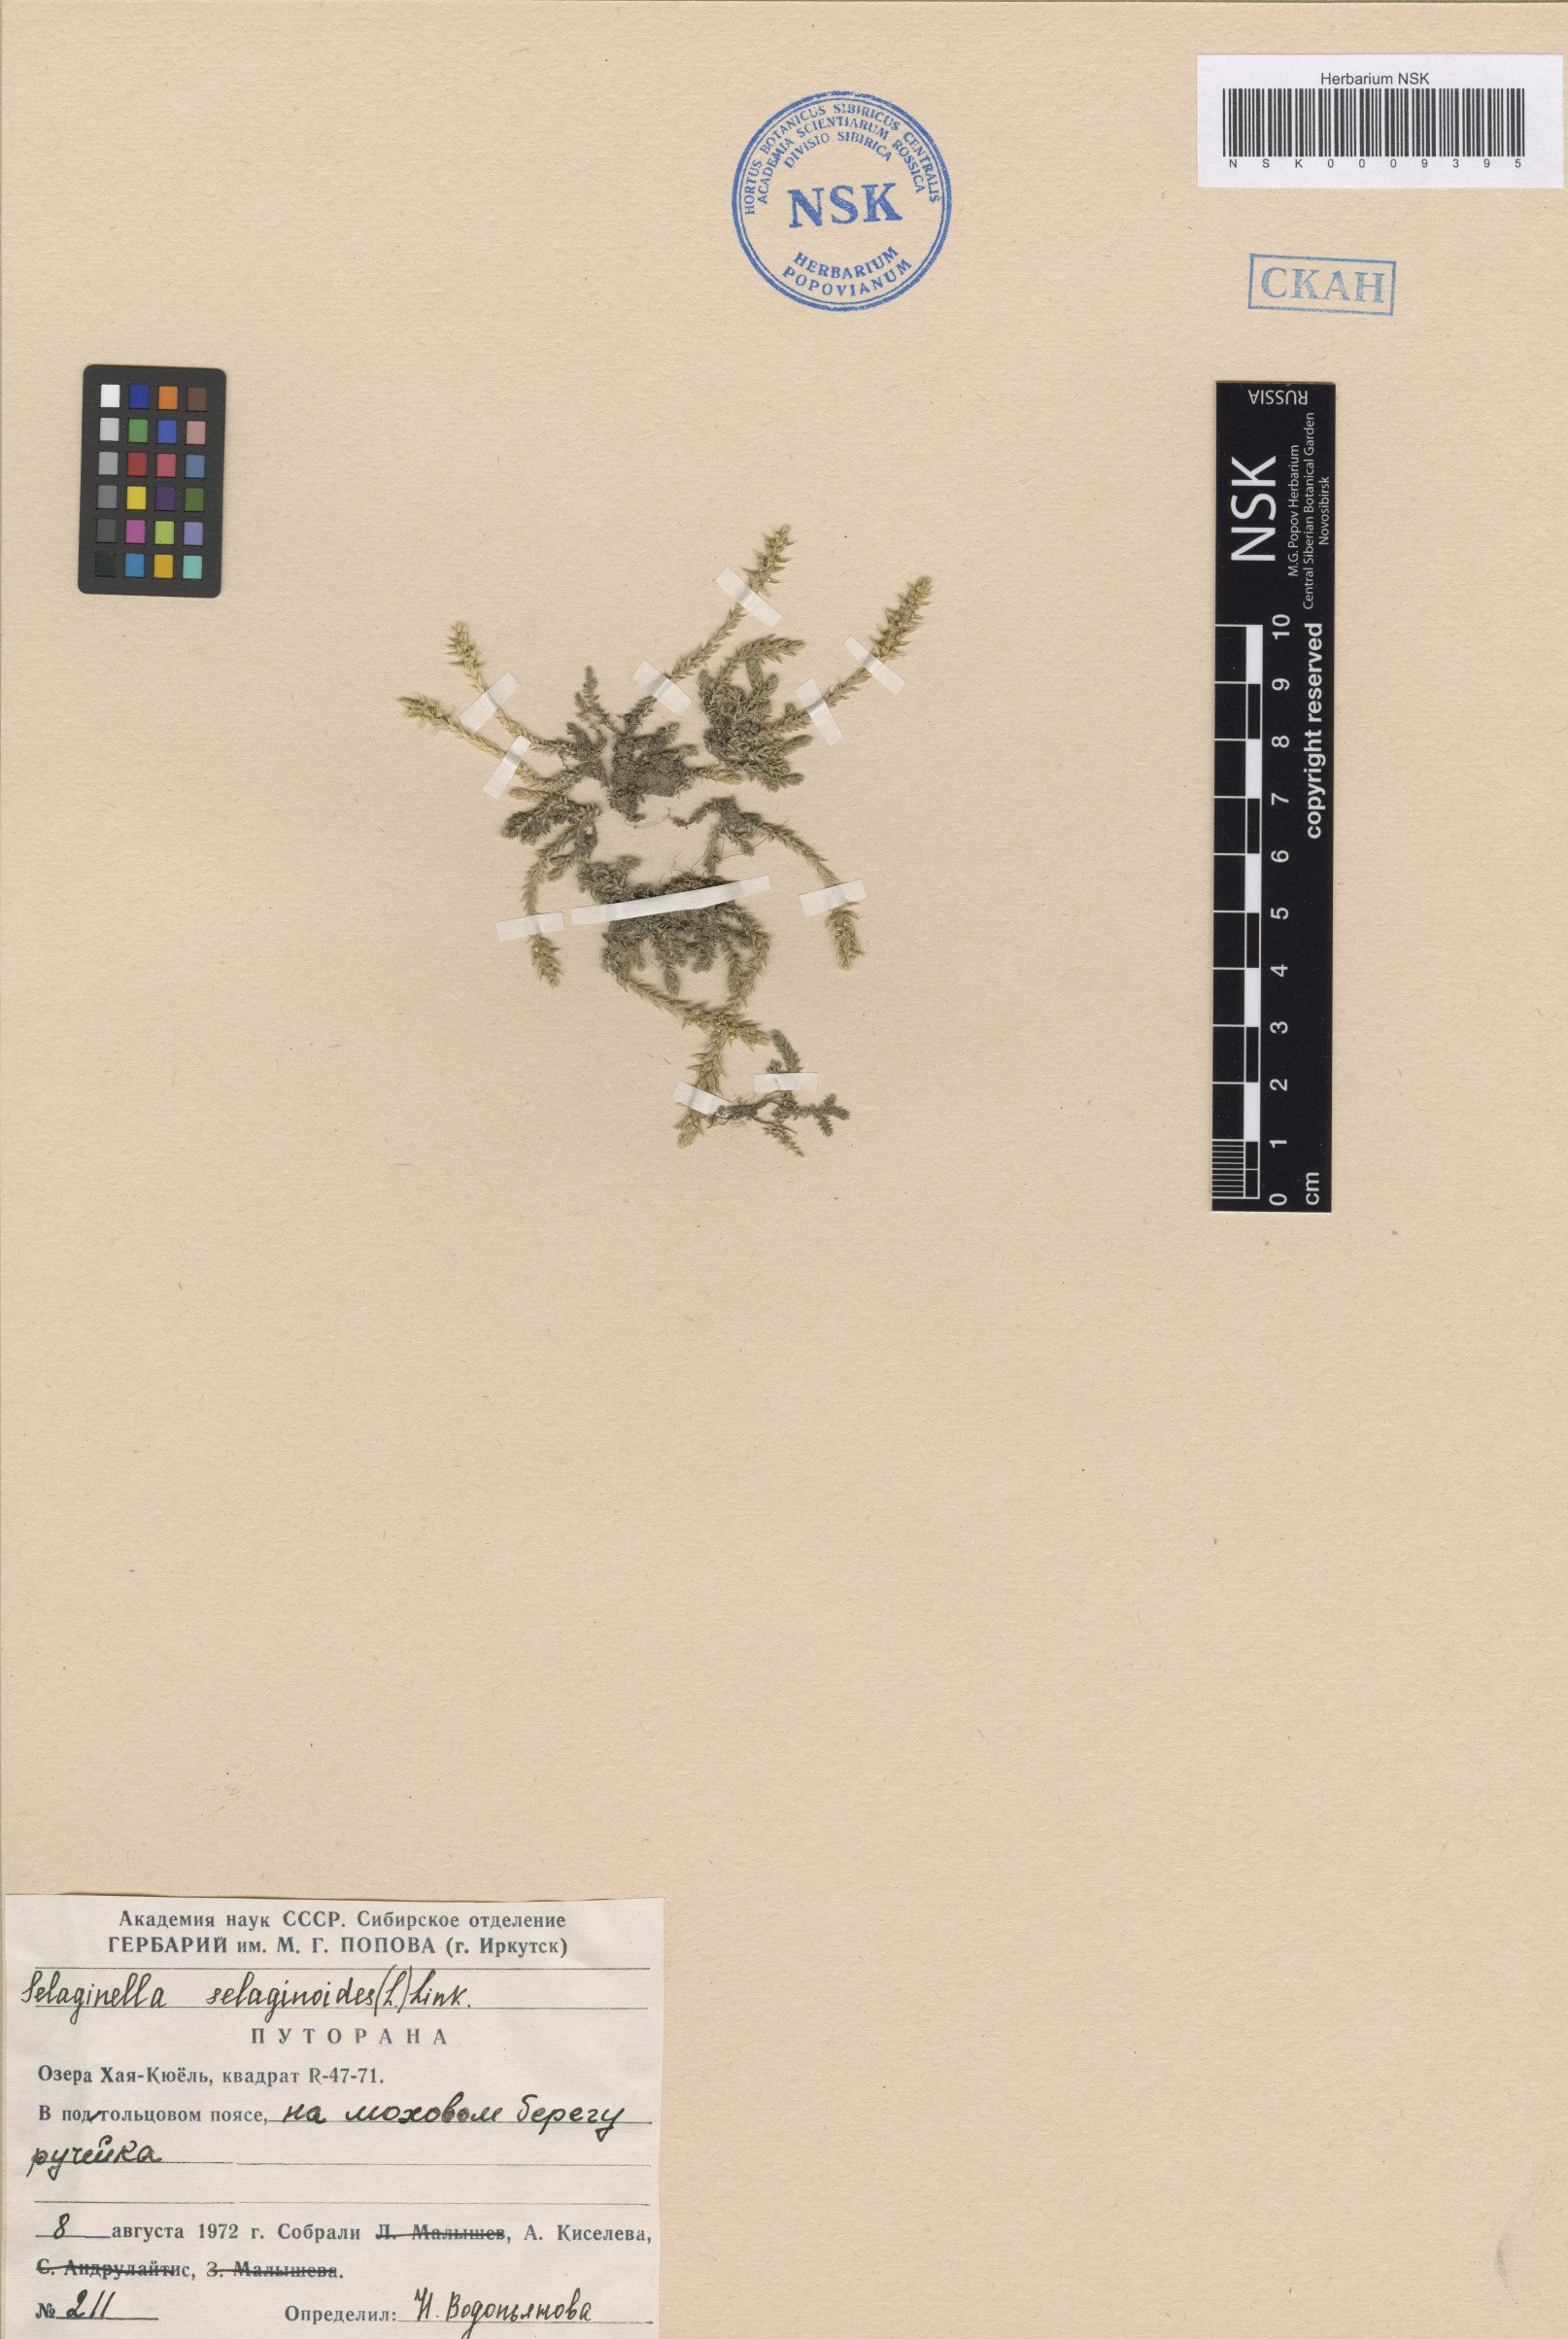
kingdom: Plantae
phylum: Tracheophyta
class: Lycopodiopsida
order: Selaginellales
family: Selaginellaceae
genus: Selaginella
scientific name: Selaginella selaginoides
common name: Prickly mountain-moss
